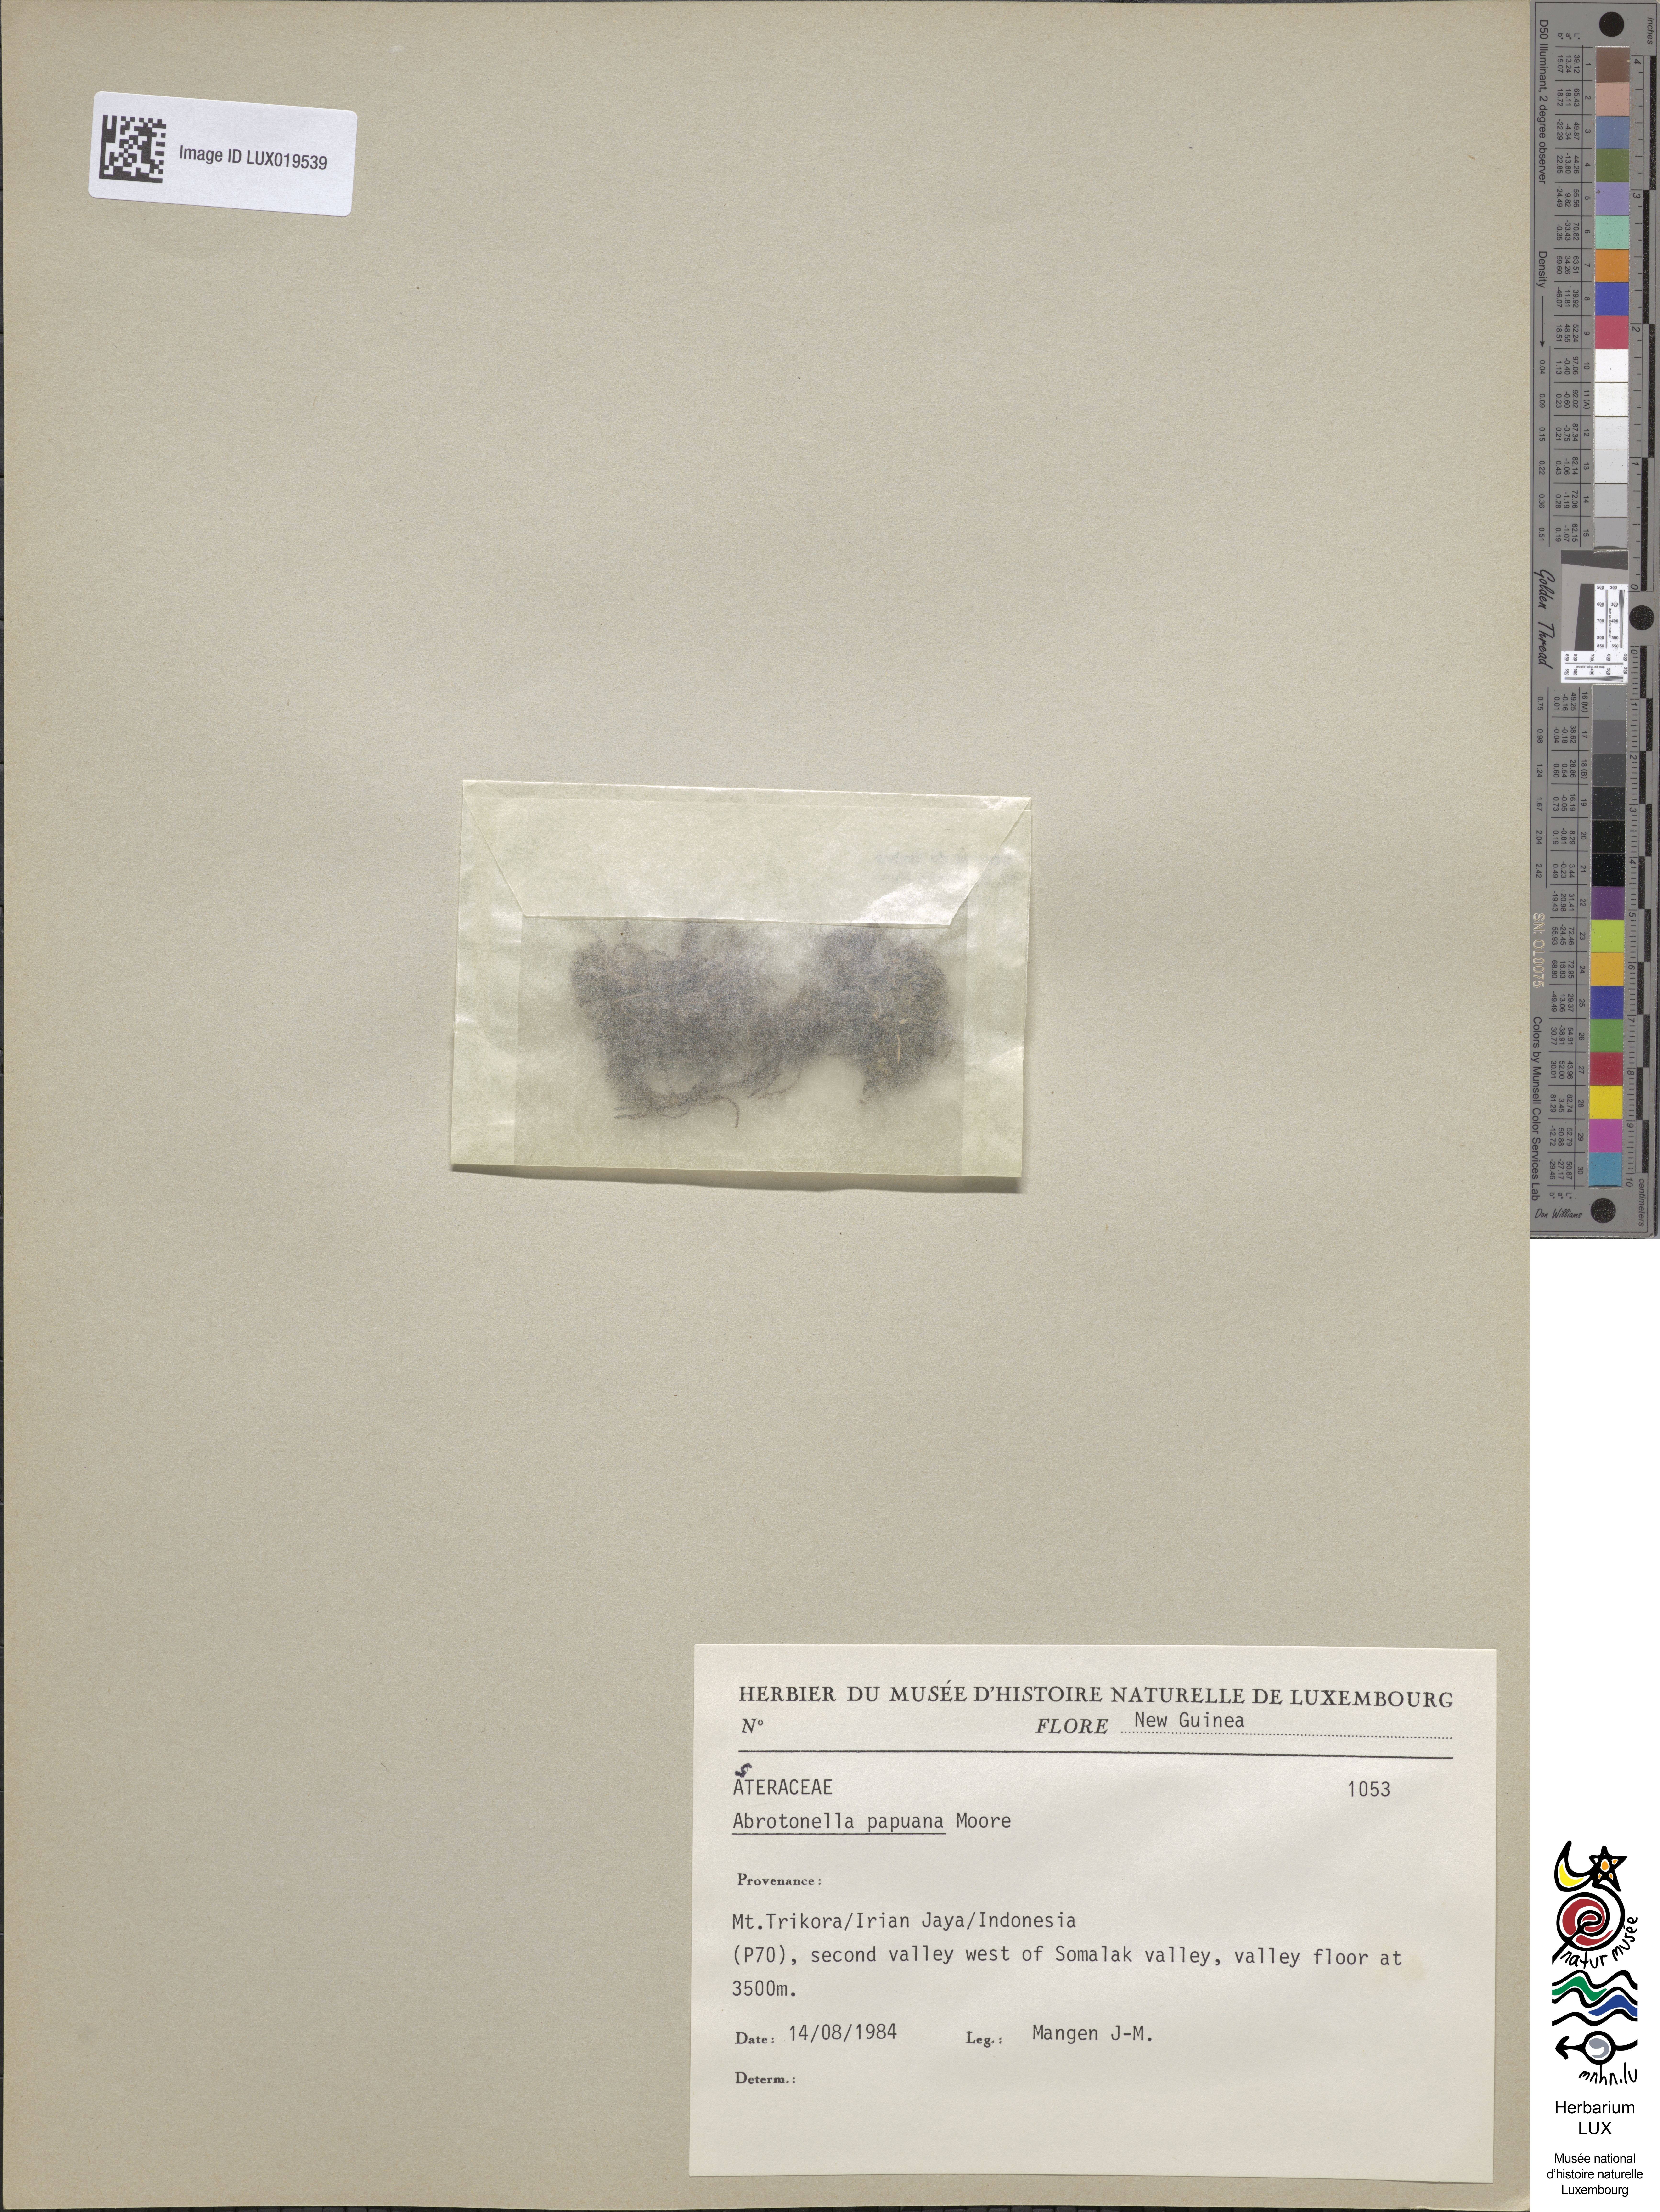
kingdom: Plantae
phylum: Tracheophyta
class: Magnoliopsida
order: Asterales
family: Asteraceae
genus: Abrotanella
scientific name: Abrotanella papuana
